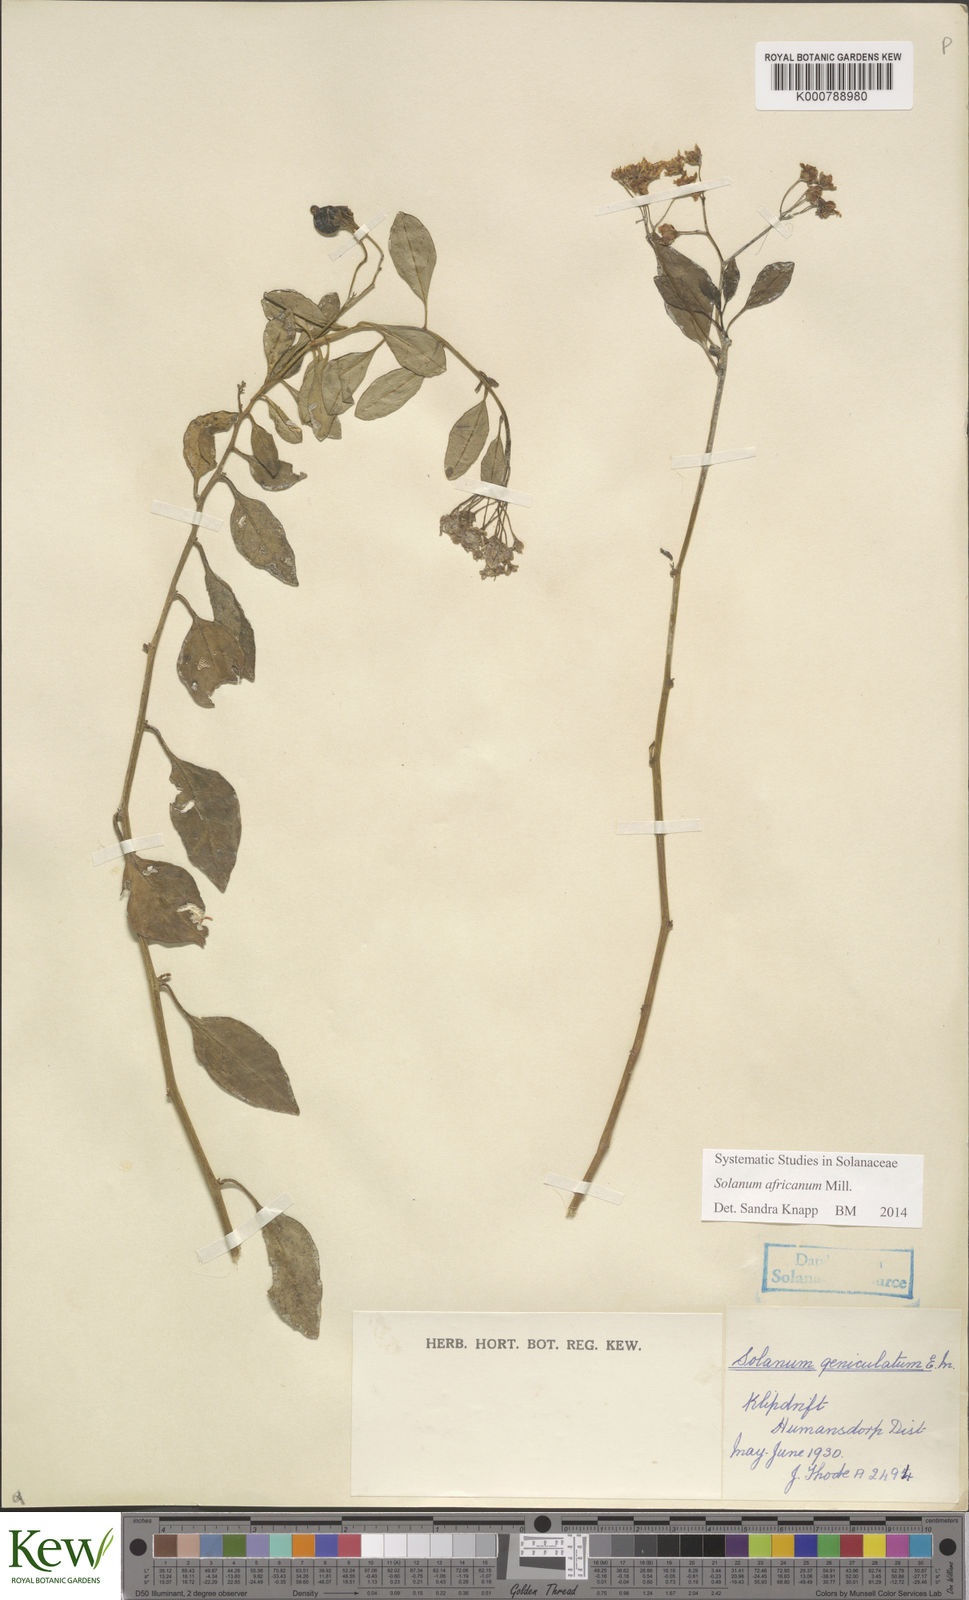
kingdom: Plantae
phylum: Tracheophyta
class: Magnoliopsida
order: Solanales
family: Solanaceae
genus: Solanum
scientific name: Solanum africanum
